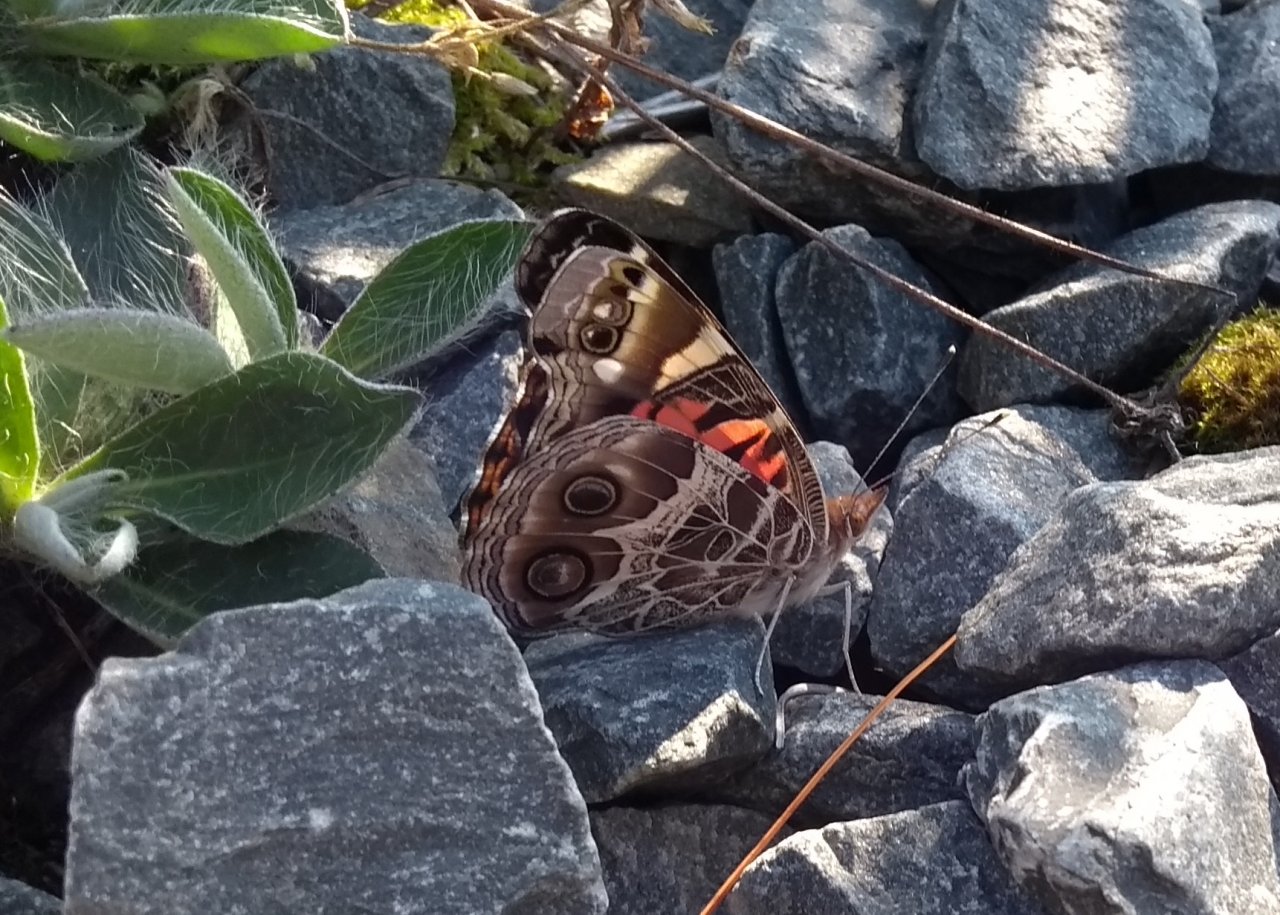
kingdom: Animalia
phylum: Arthropoda
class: Insecta
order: Lepidoptera
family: Nymphalidae
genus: Vanessa
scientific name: Vanessa virginiensis
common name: American Lady
